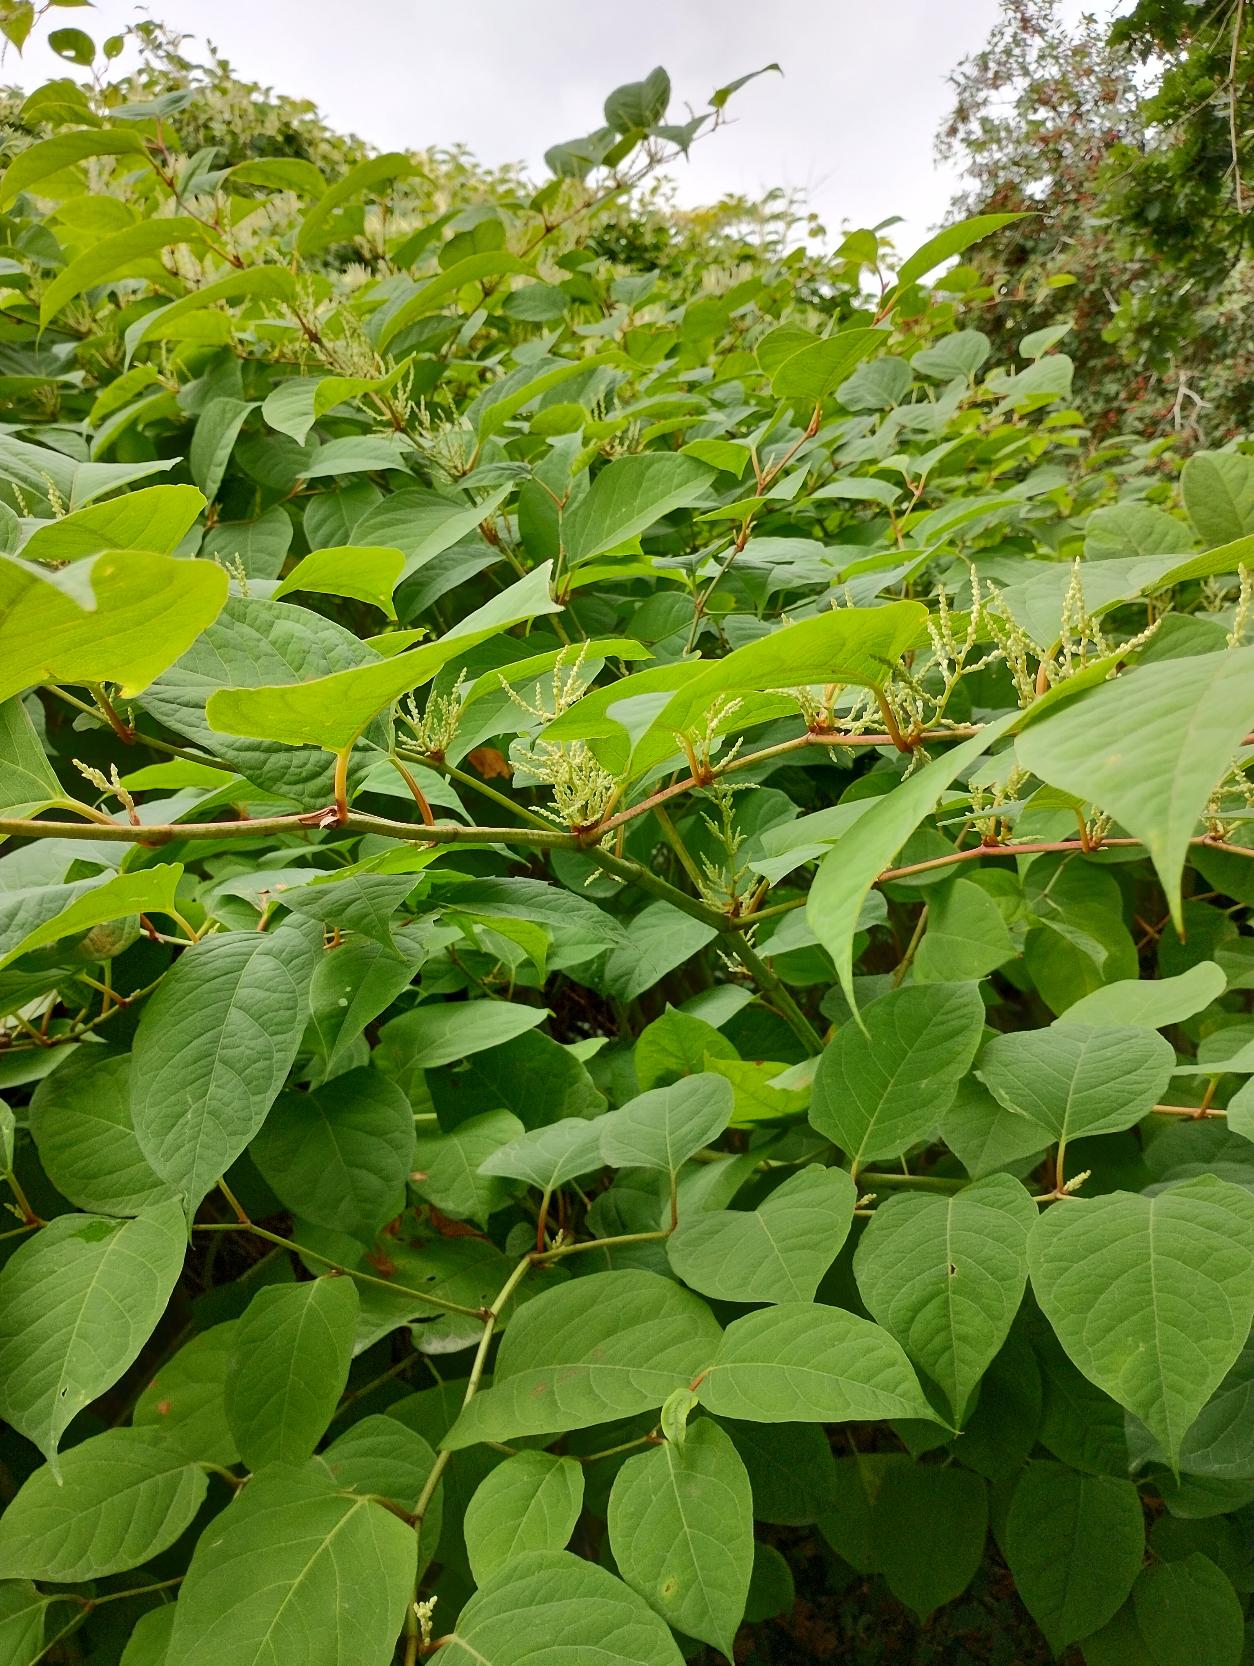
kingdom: Plantae
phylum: Tracheophyta
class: Magnoliopsida
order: Caryophyllales
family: Polygonaceae
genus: Reynoutria
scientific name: Reynoutria japonica
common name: Japan-pileurt
